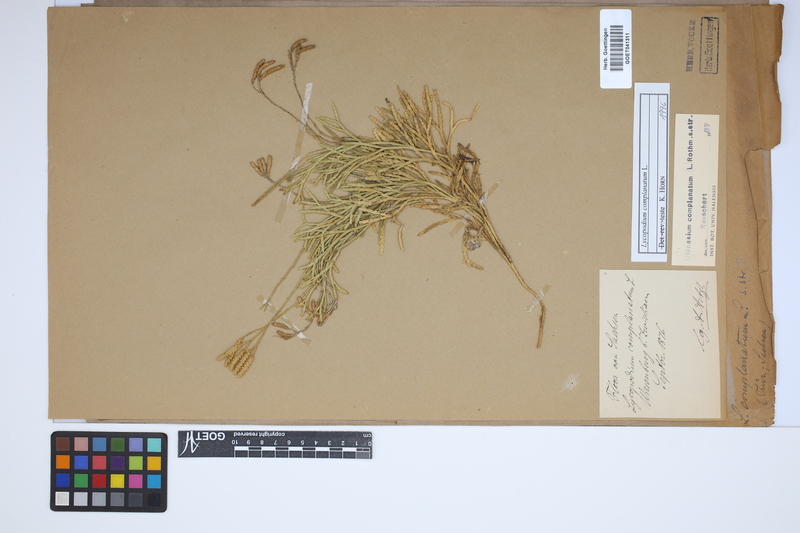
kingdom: Plantae
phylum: Tracheophyta
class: Lycopodiopsida
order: Lycopodiales
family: Lycopodiaceae
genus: Diphasiastrum
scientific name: Diphasiastrum complanatum
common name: Northern running-pine
